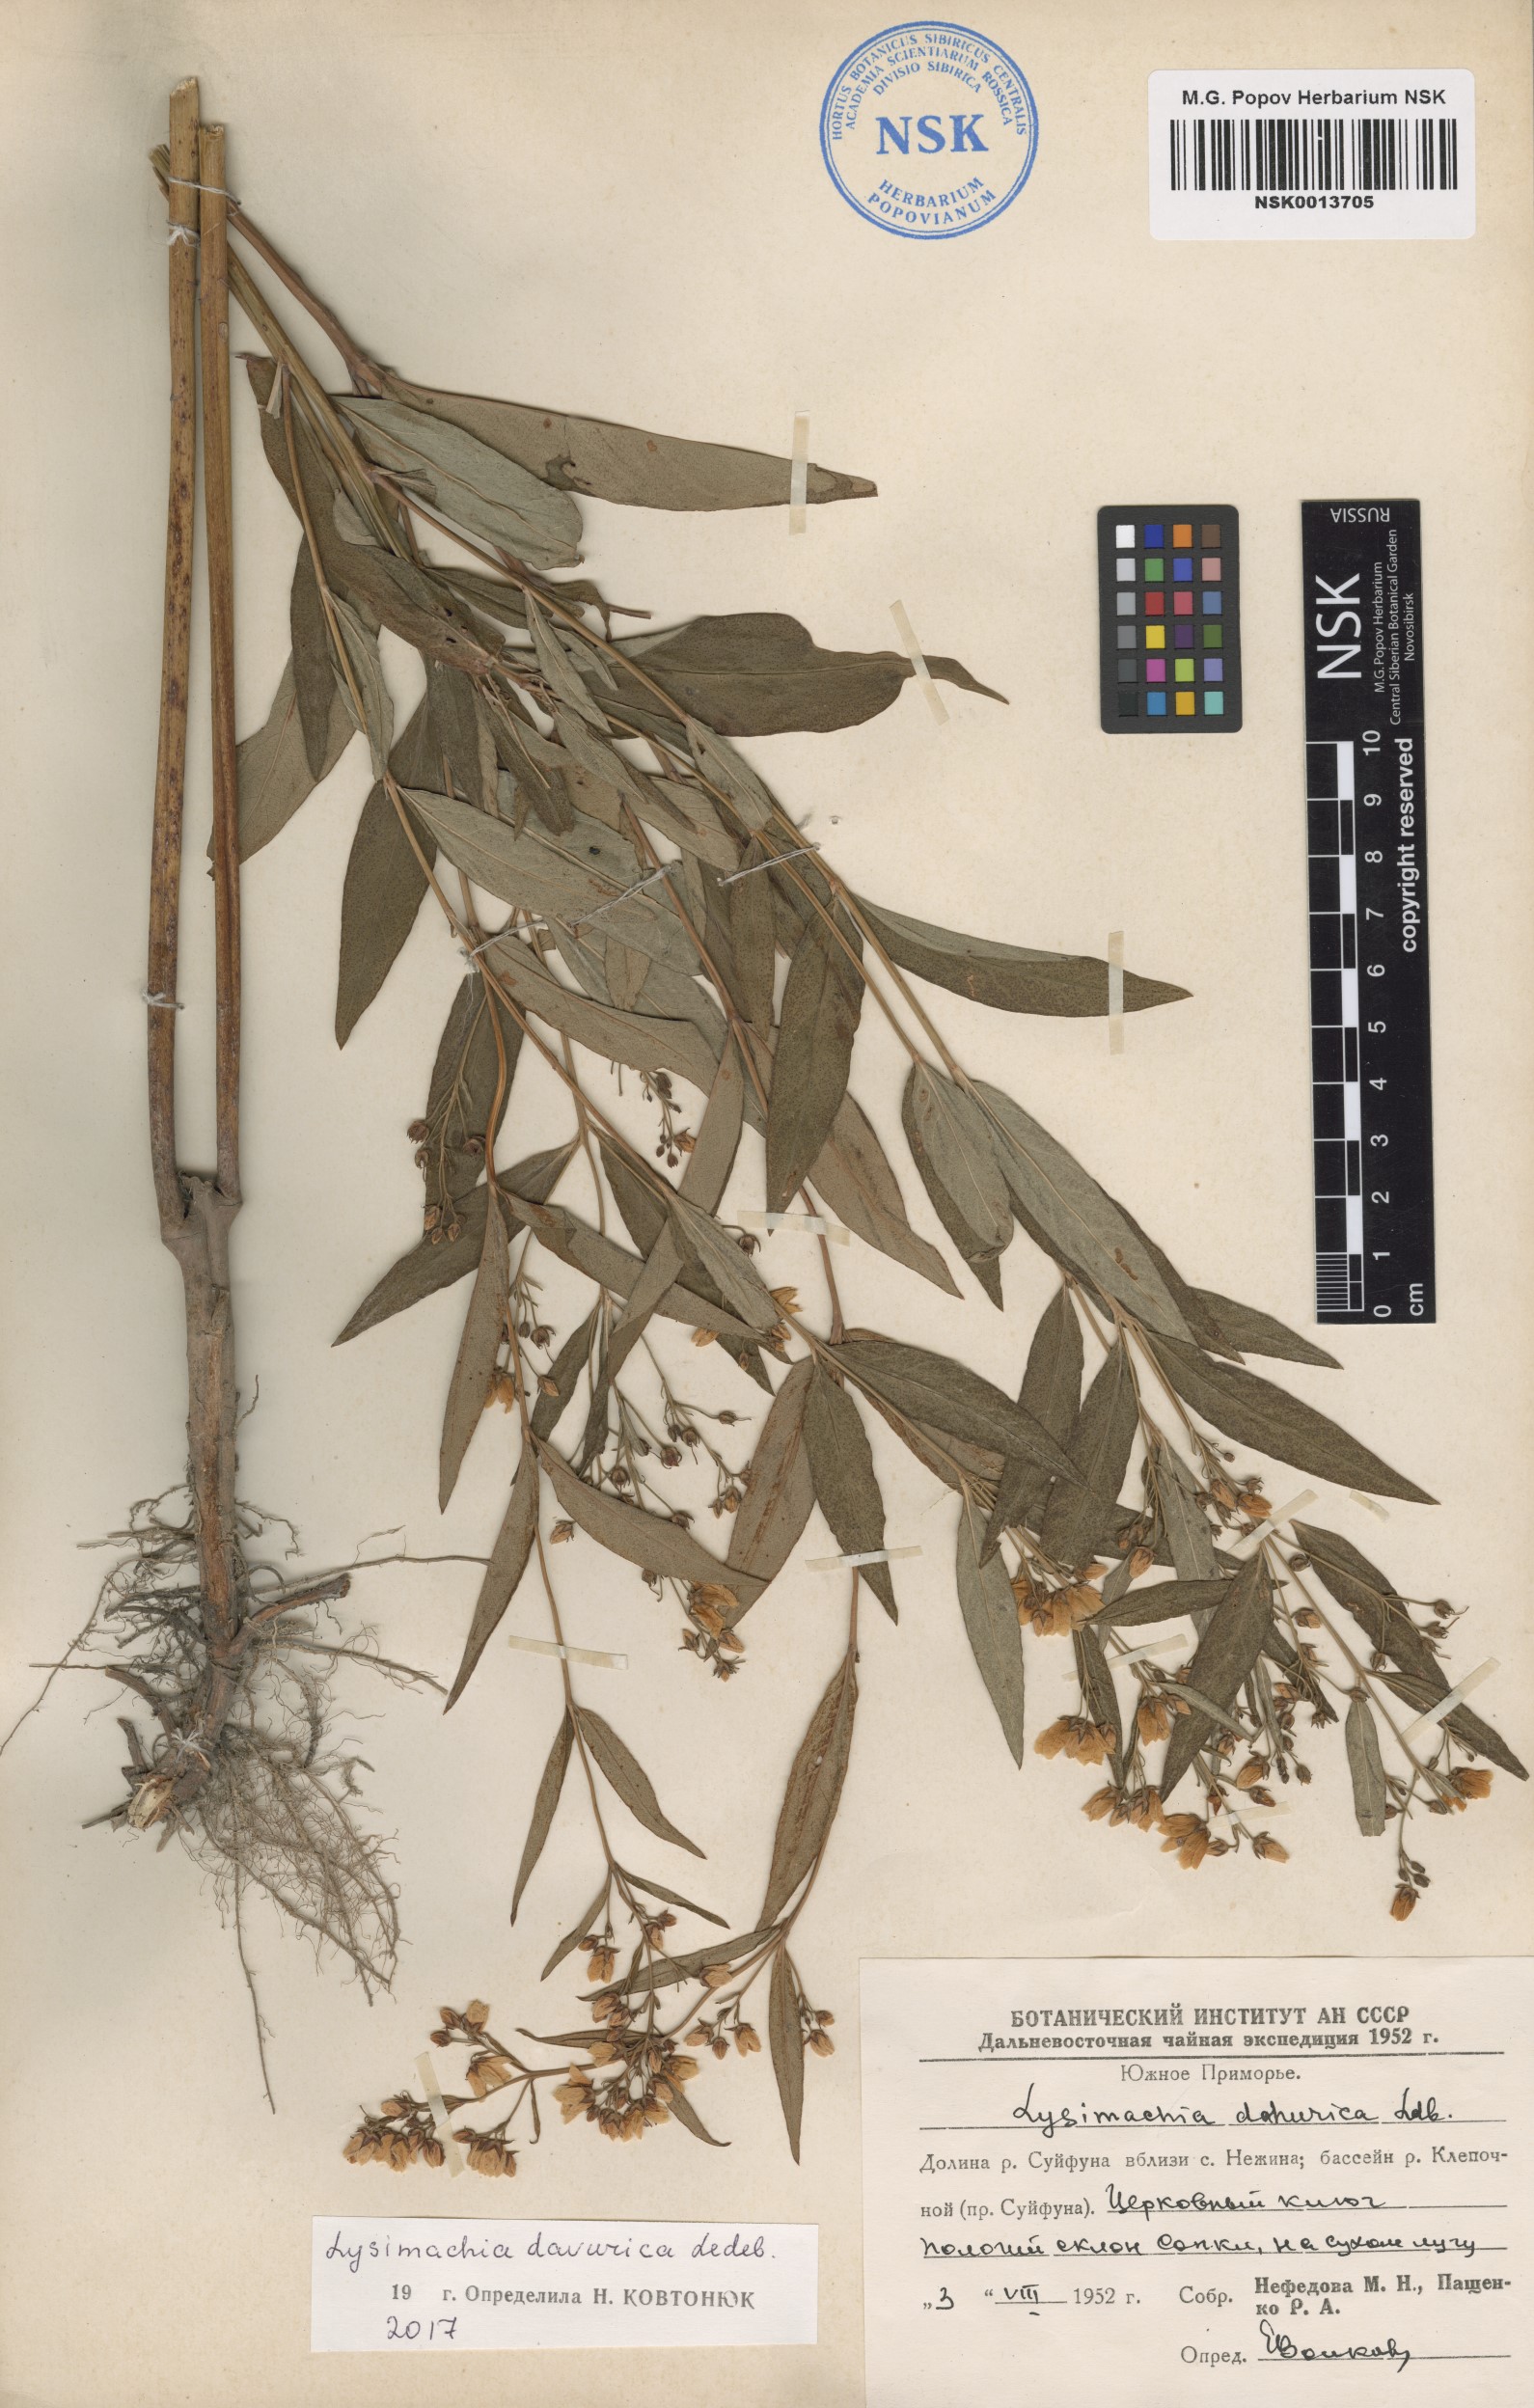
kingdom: Plantae
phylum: Tracheophyta
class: Magnoliopsida
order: Ericales
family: Primulaceae
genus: Lysimachia
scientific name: Lysimachia davurica
